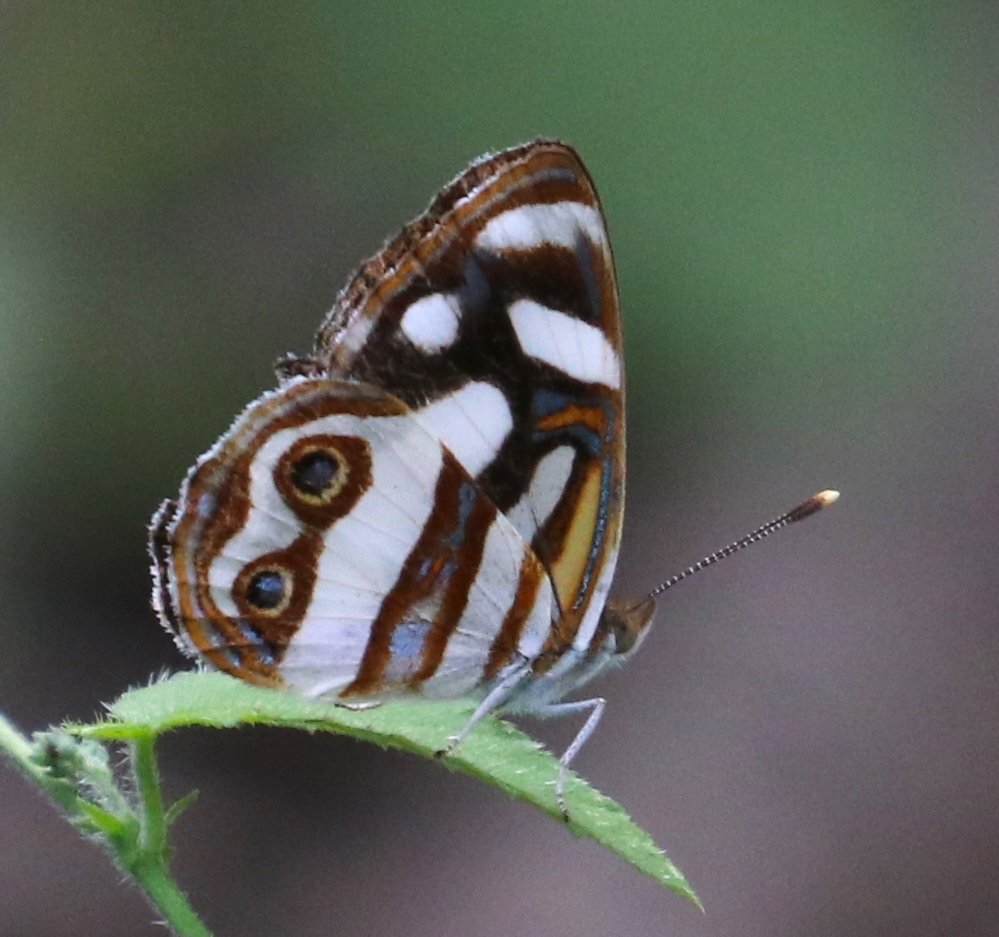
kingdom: Animalia
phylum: Arthropoda
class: Insecta
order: Lepidoptera
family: Nymphalidae
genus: Dynamine
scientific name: Dynamine dyonis
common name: Blue-eyed Sailor
